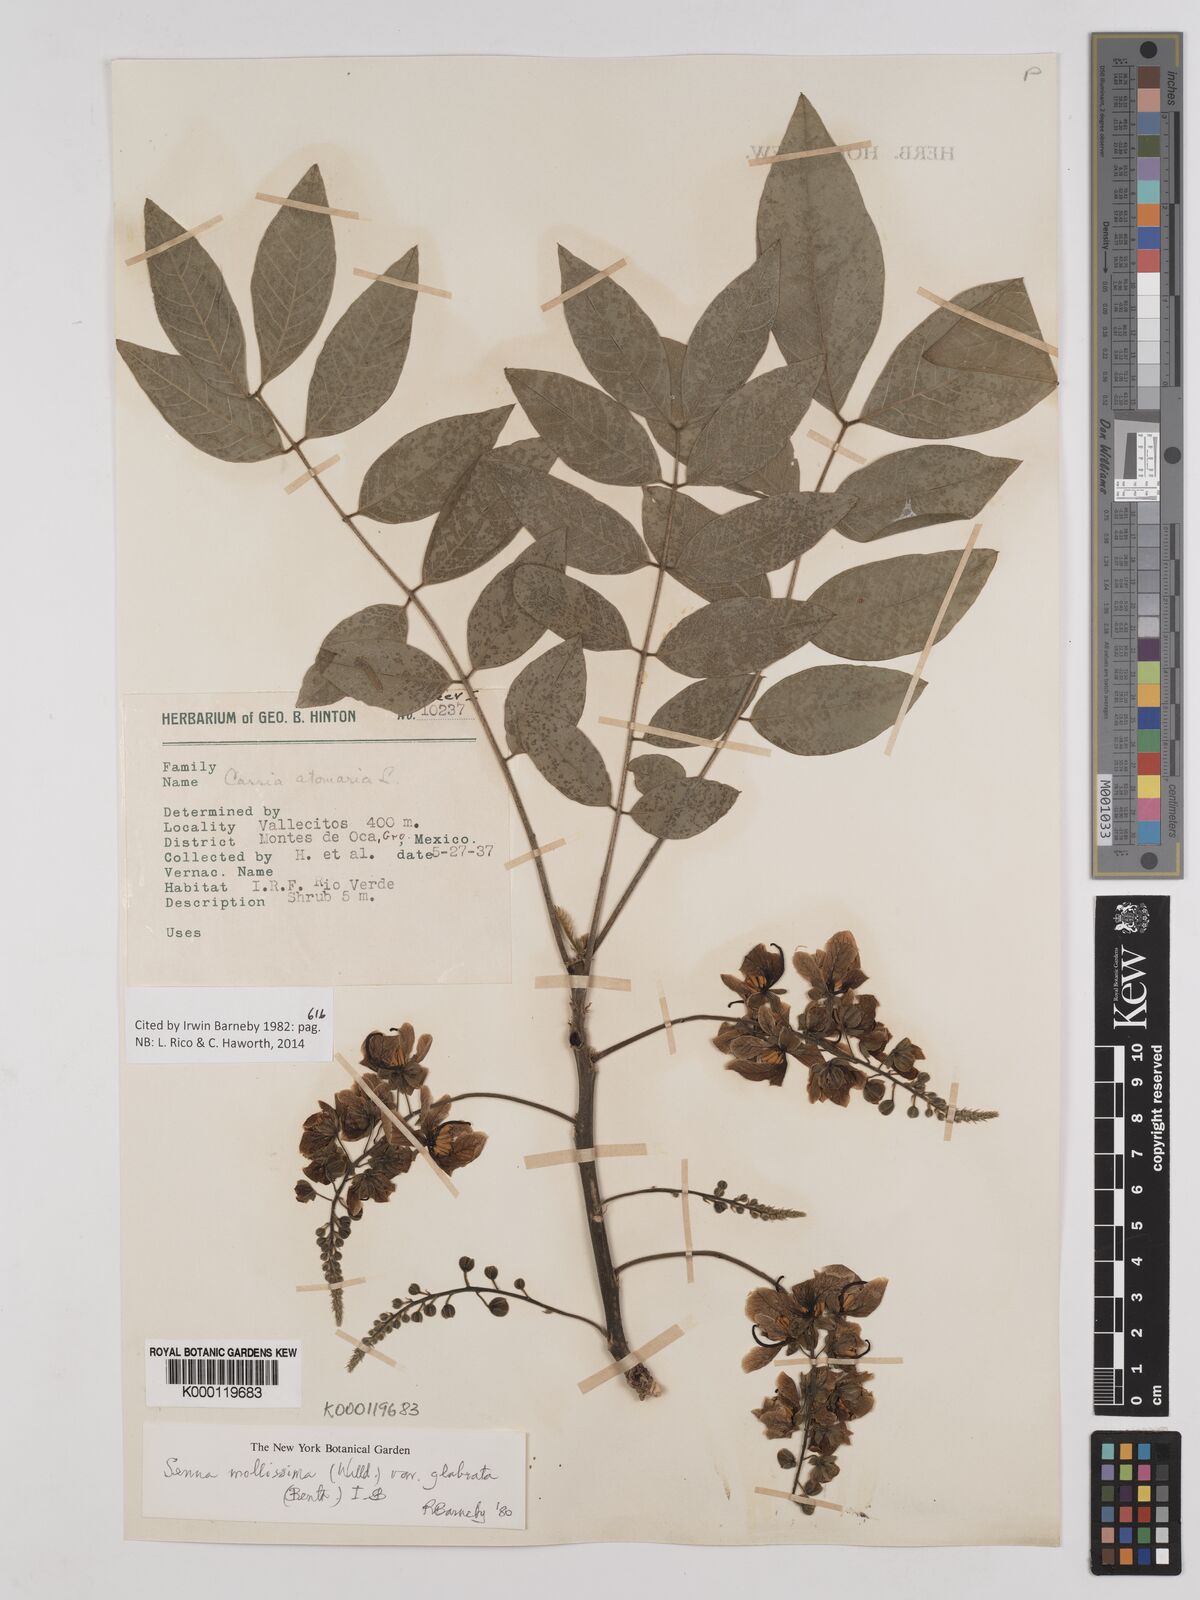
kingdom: Plantae
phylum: Tracheophyta
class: Magnoliopsida
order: Fabales
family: Fabaceae
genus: Senna
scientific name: Senna mollissima
